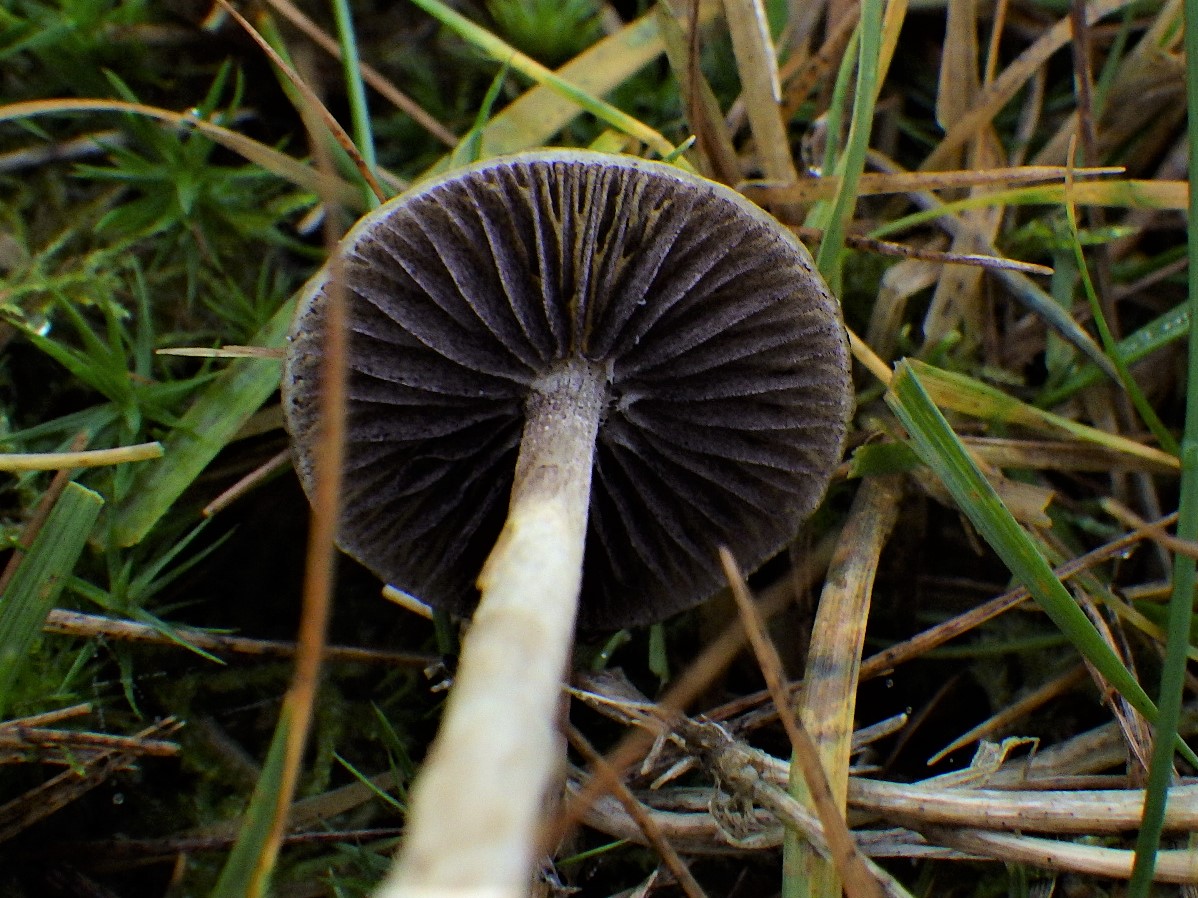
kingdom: Fungi
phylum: Basidiomycota
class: Agaricomycetes
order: Agaricales
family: Strophariaceae
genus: Protostropharia
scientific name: Protostropharia semiglobata
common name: halvkugleformet bredblad
